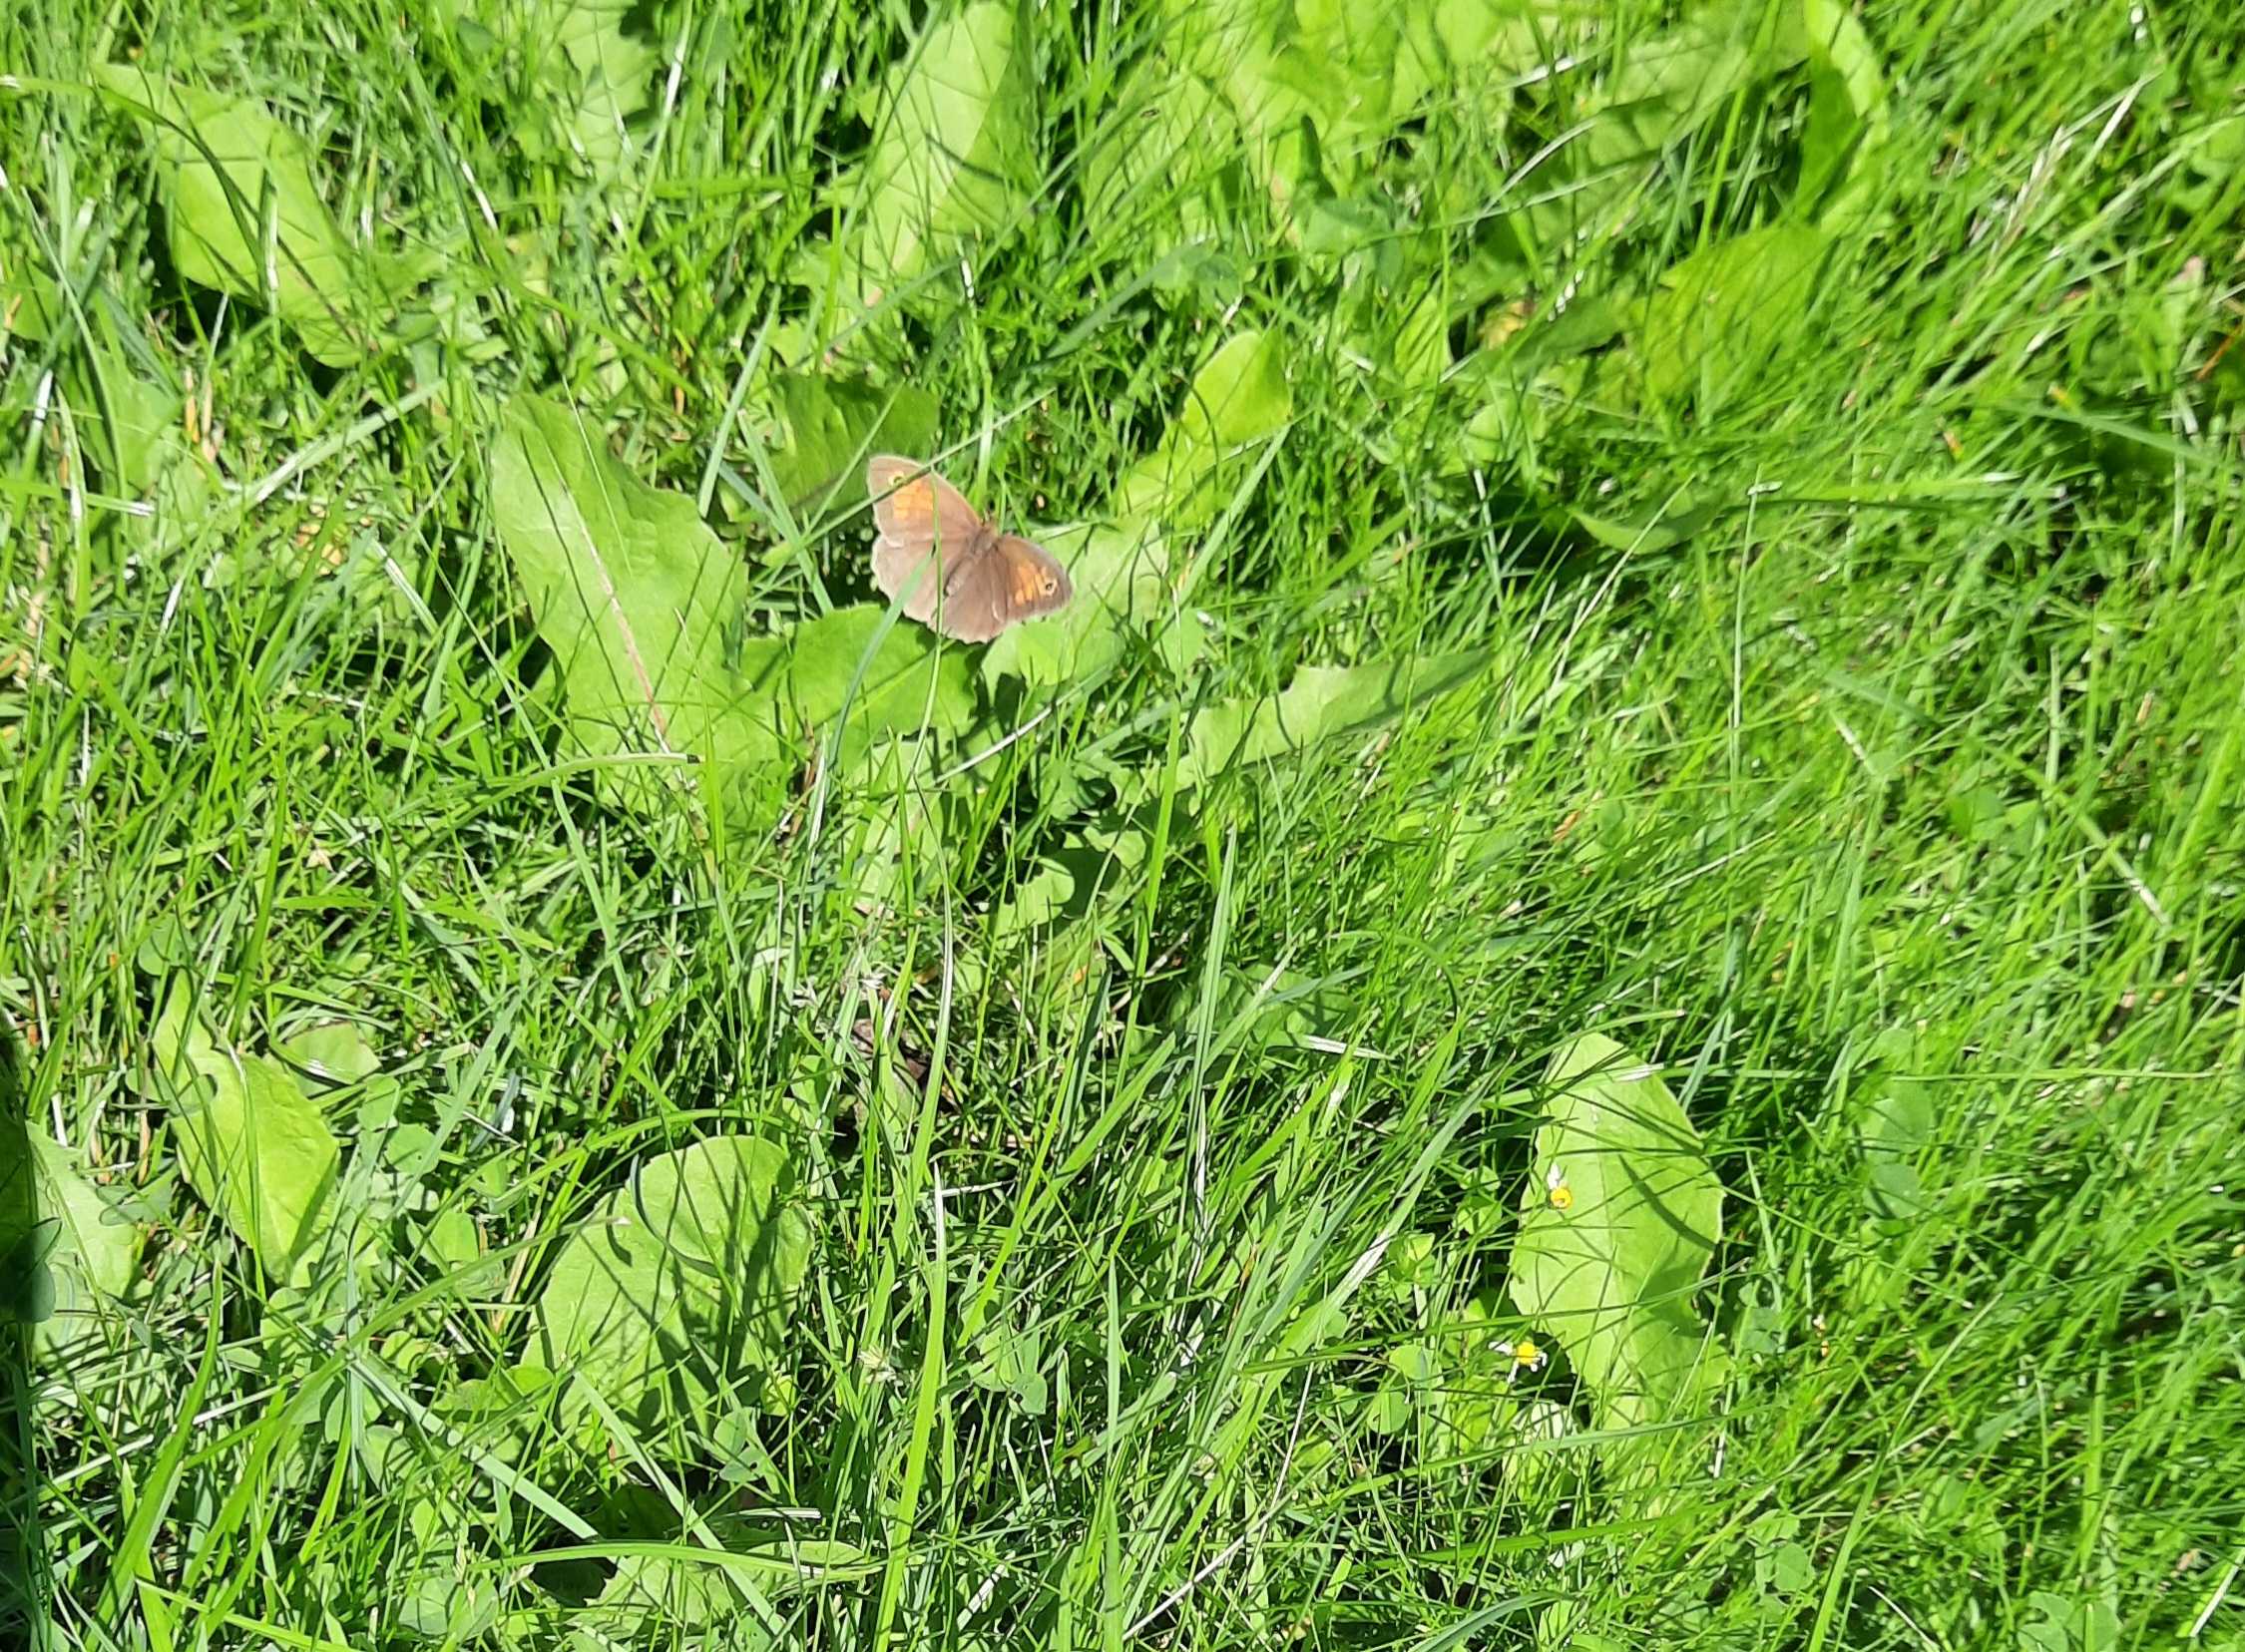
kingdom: Animalia
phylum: Arthropoda
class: Insecta
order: Lepidoptera
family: Nymphalidae
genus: Maniola
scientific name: Maniola jurtina
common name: Græsrandøje
